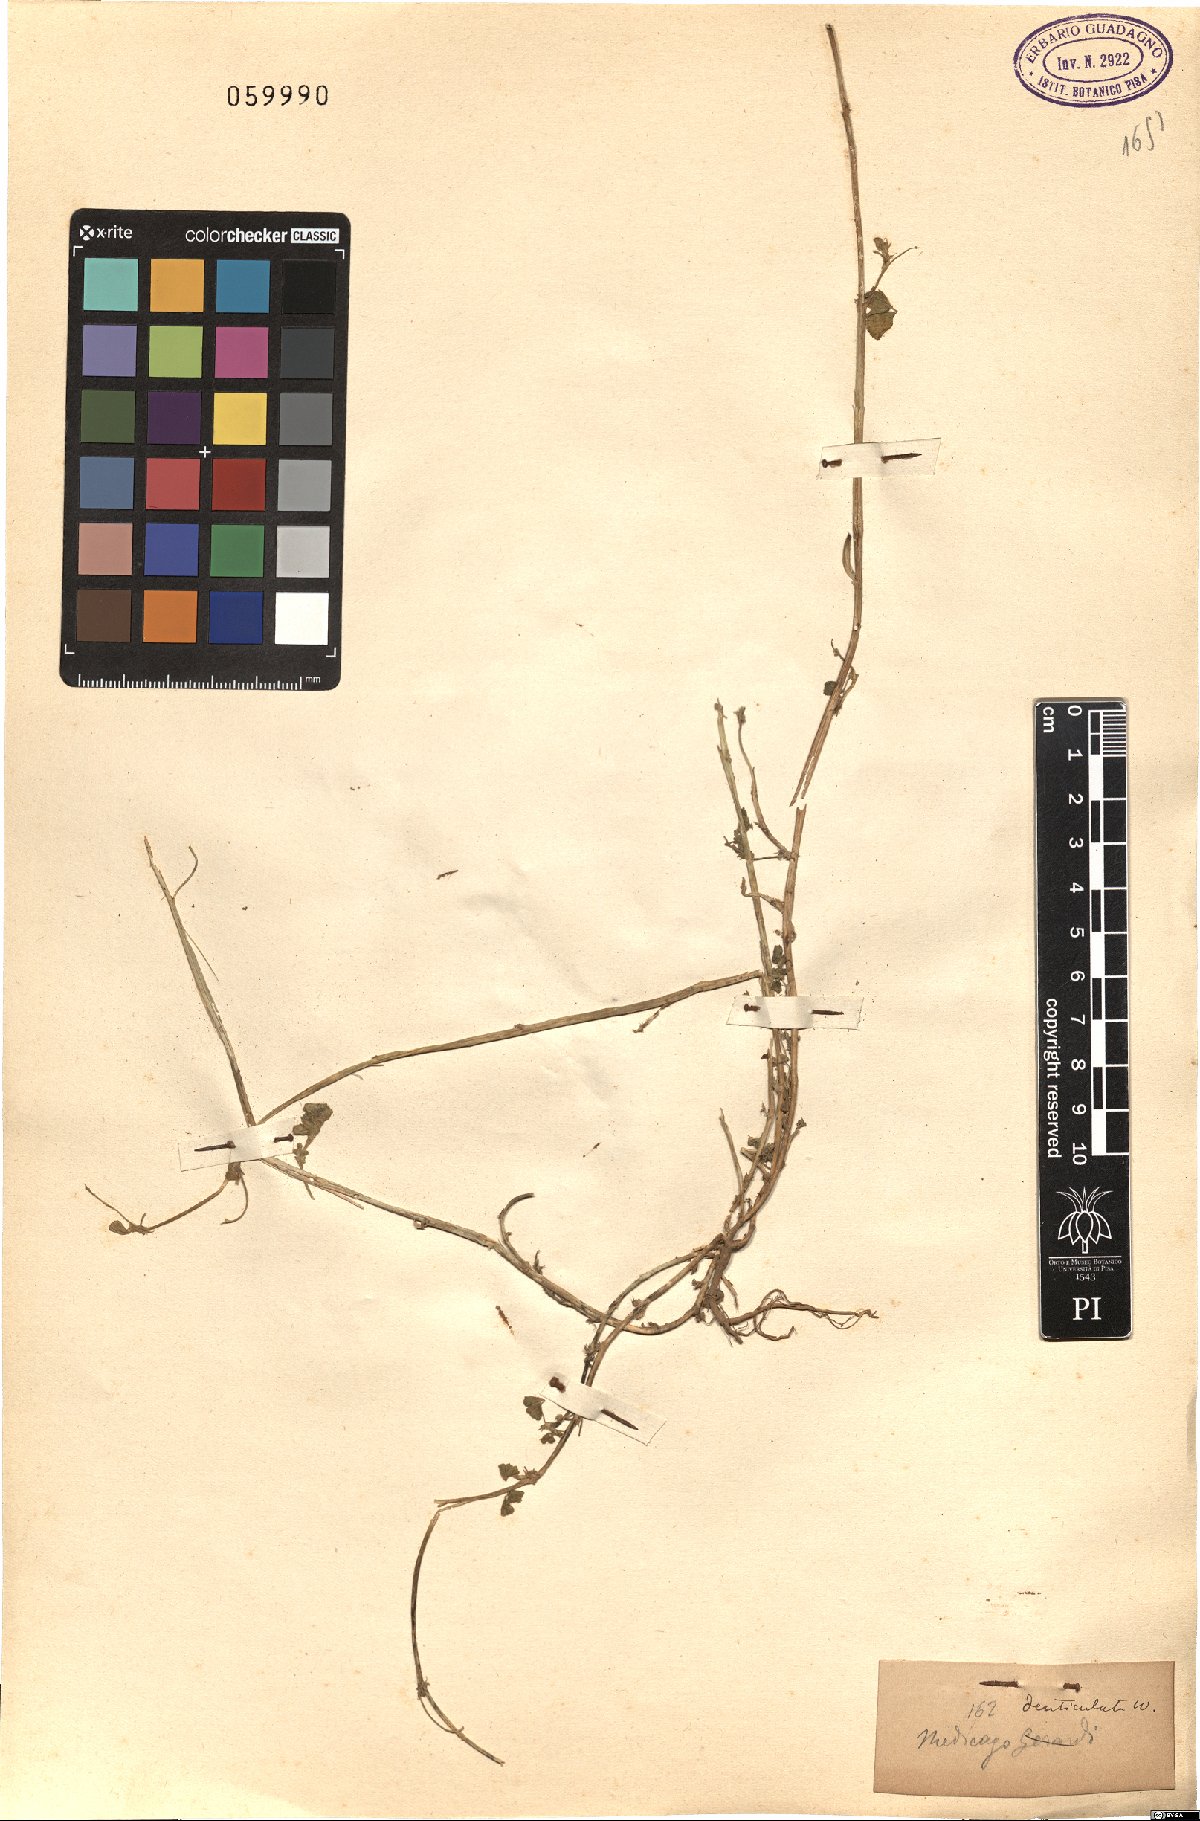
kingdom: Plantae
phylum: Tracheophyta
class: Magnoliopsida
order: Fabales
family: Fabaceae
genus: Medicago
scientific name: Medicago polymorpha
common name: Burclover
